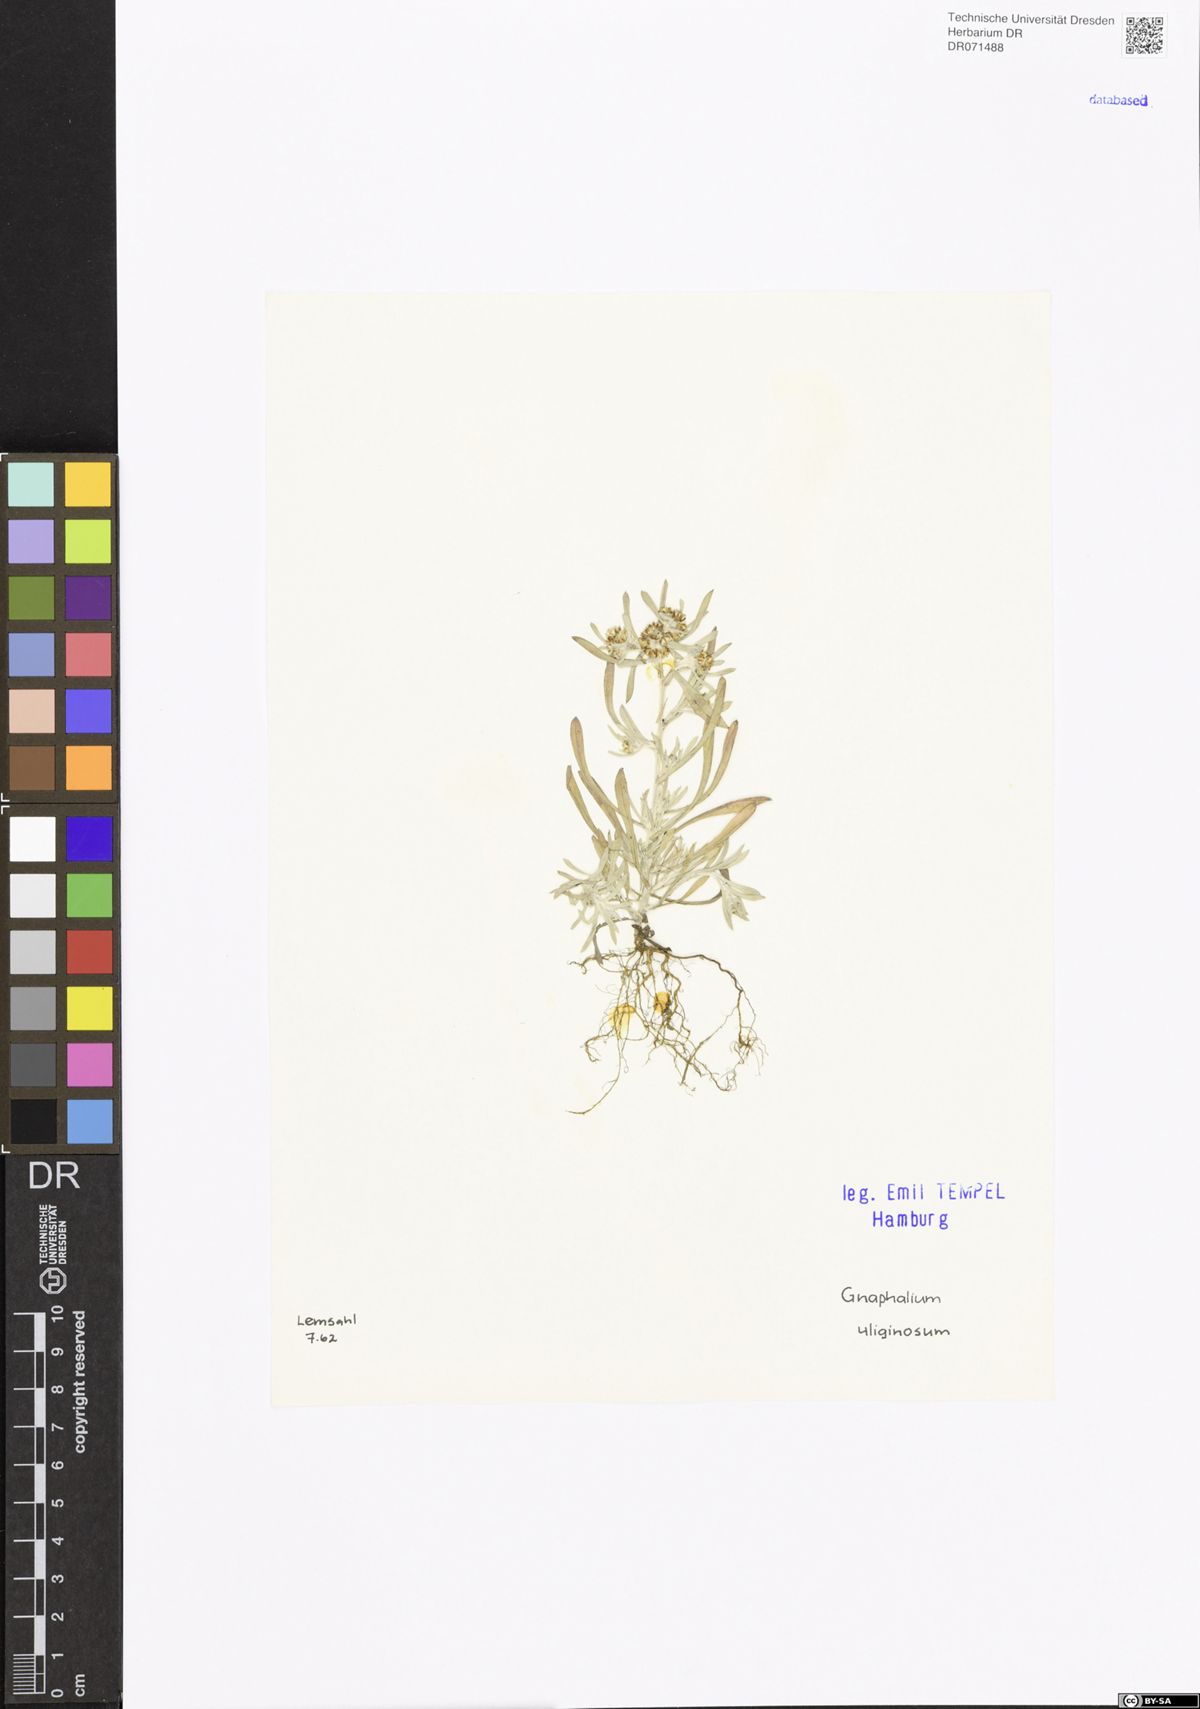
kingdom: Plantae
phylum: Tracheophyta
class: Magnoliopsida
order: Asterales
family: Asteraceae
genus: Gnaphalium
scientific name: Gnaphalium uliginosum
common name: Marsh cudweed
